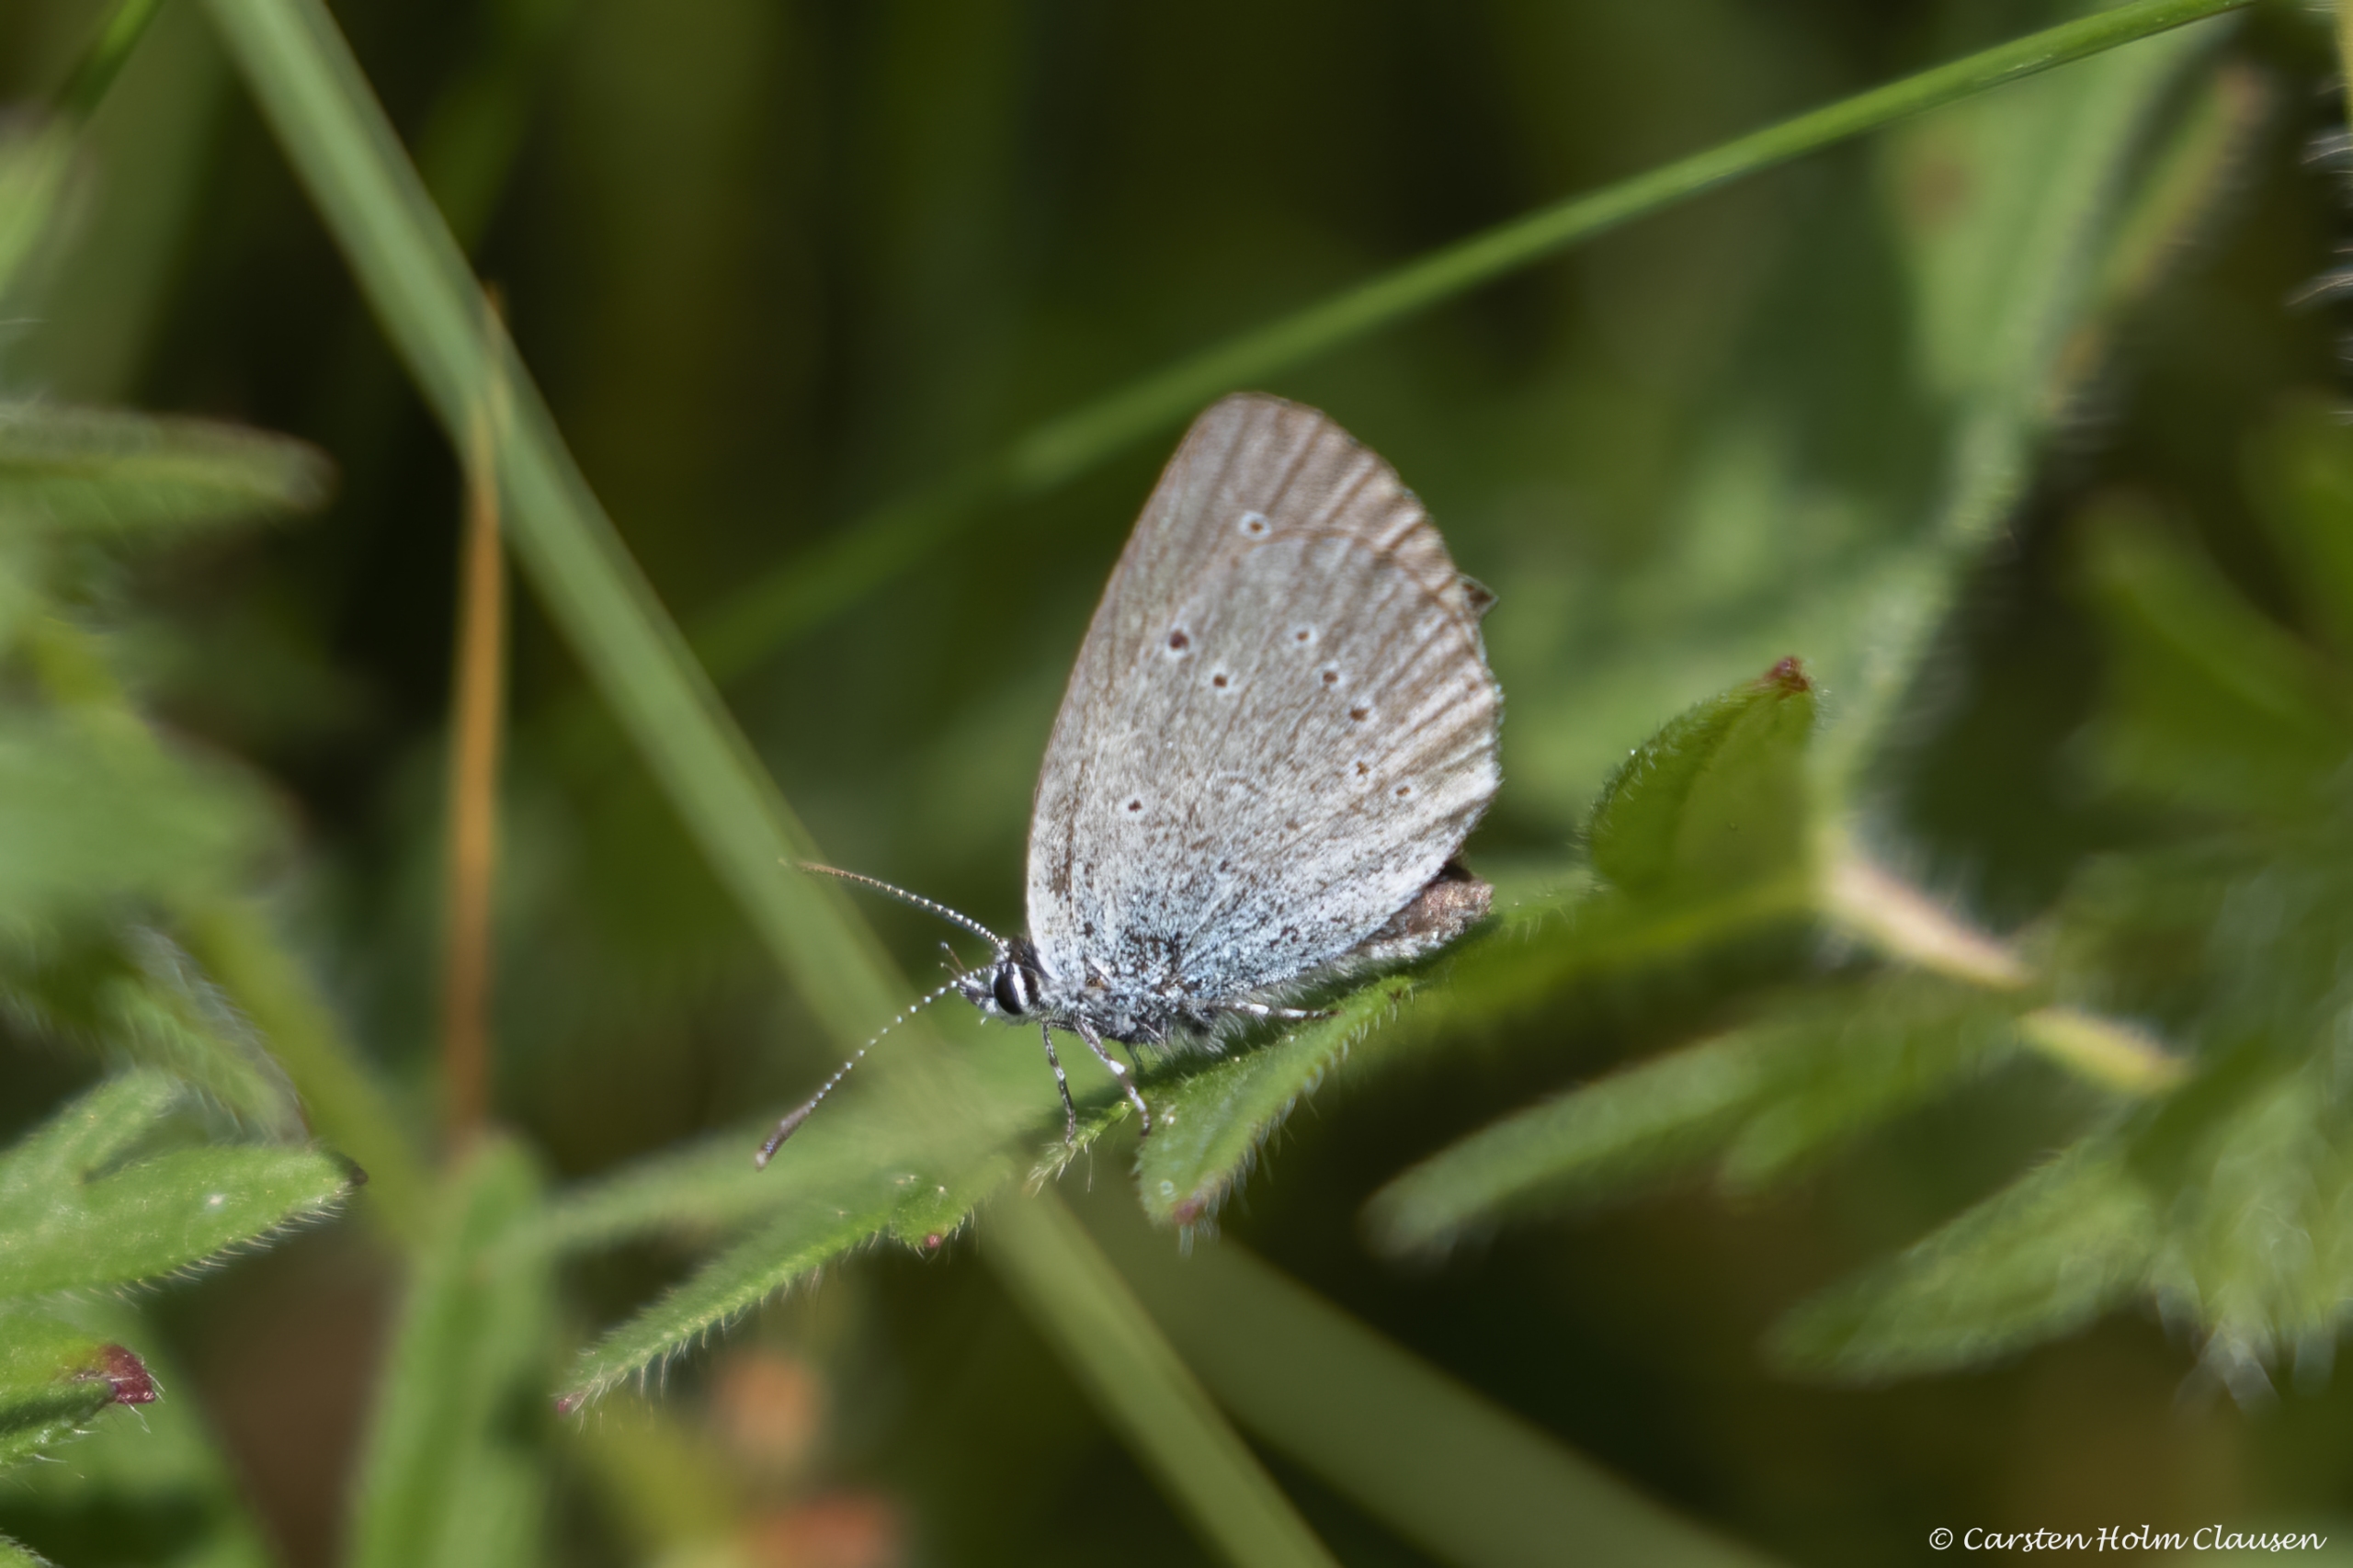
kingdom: Animalia
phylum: Arthropoda
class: Insecta
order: Lepidoptera
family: Lycaenidae
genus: Cupido
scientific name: Cupido minimus
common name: Dværgblåfugl
